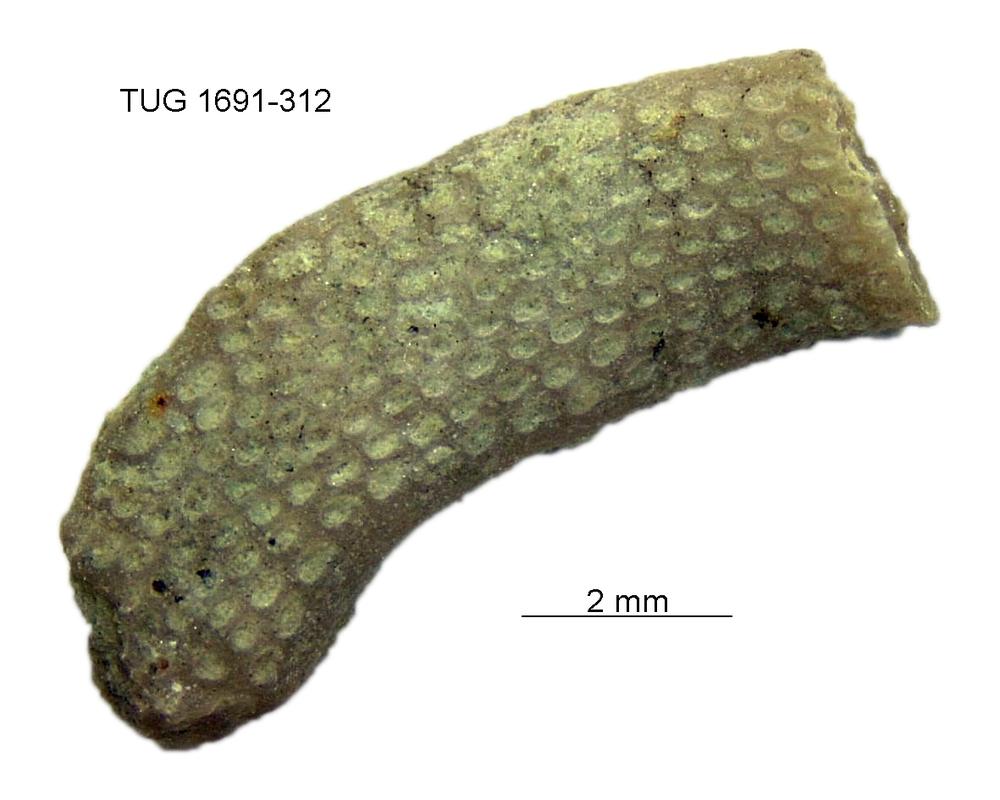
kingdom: Animalia
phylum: Bryozoa
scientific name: Bryozoa
